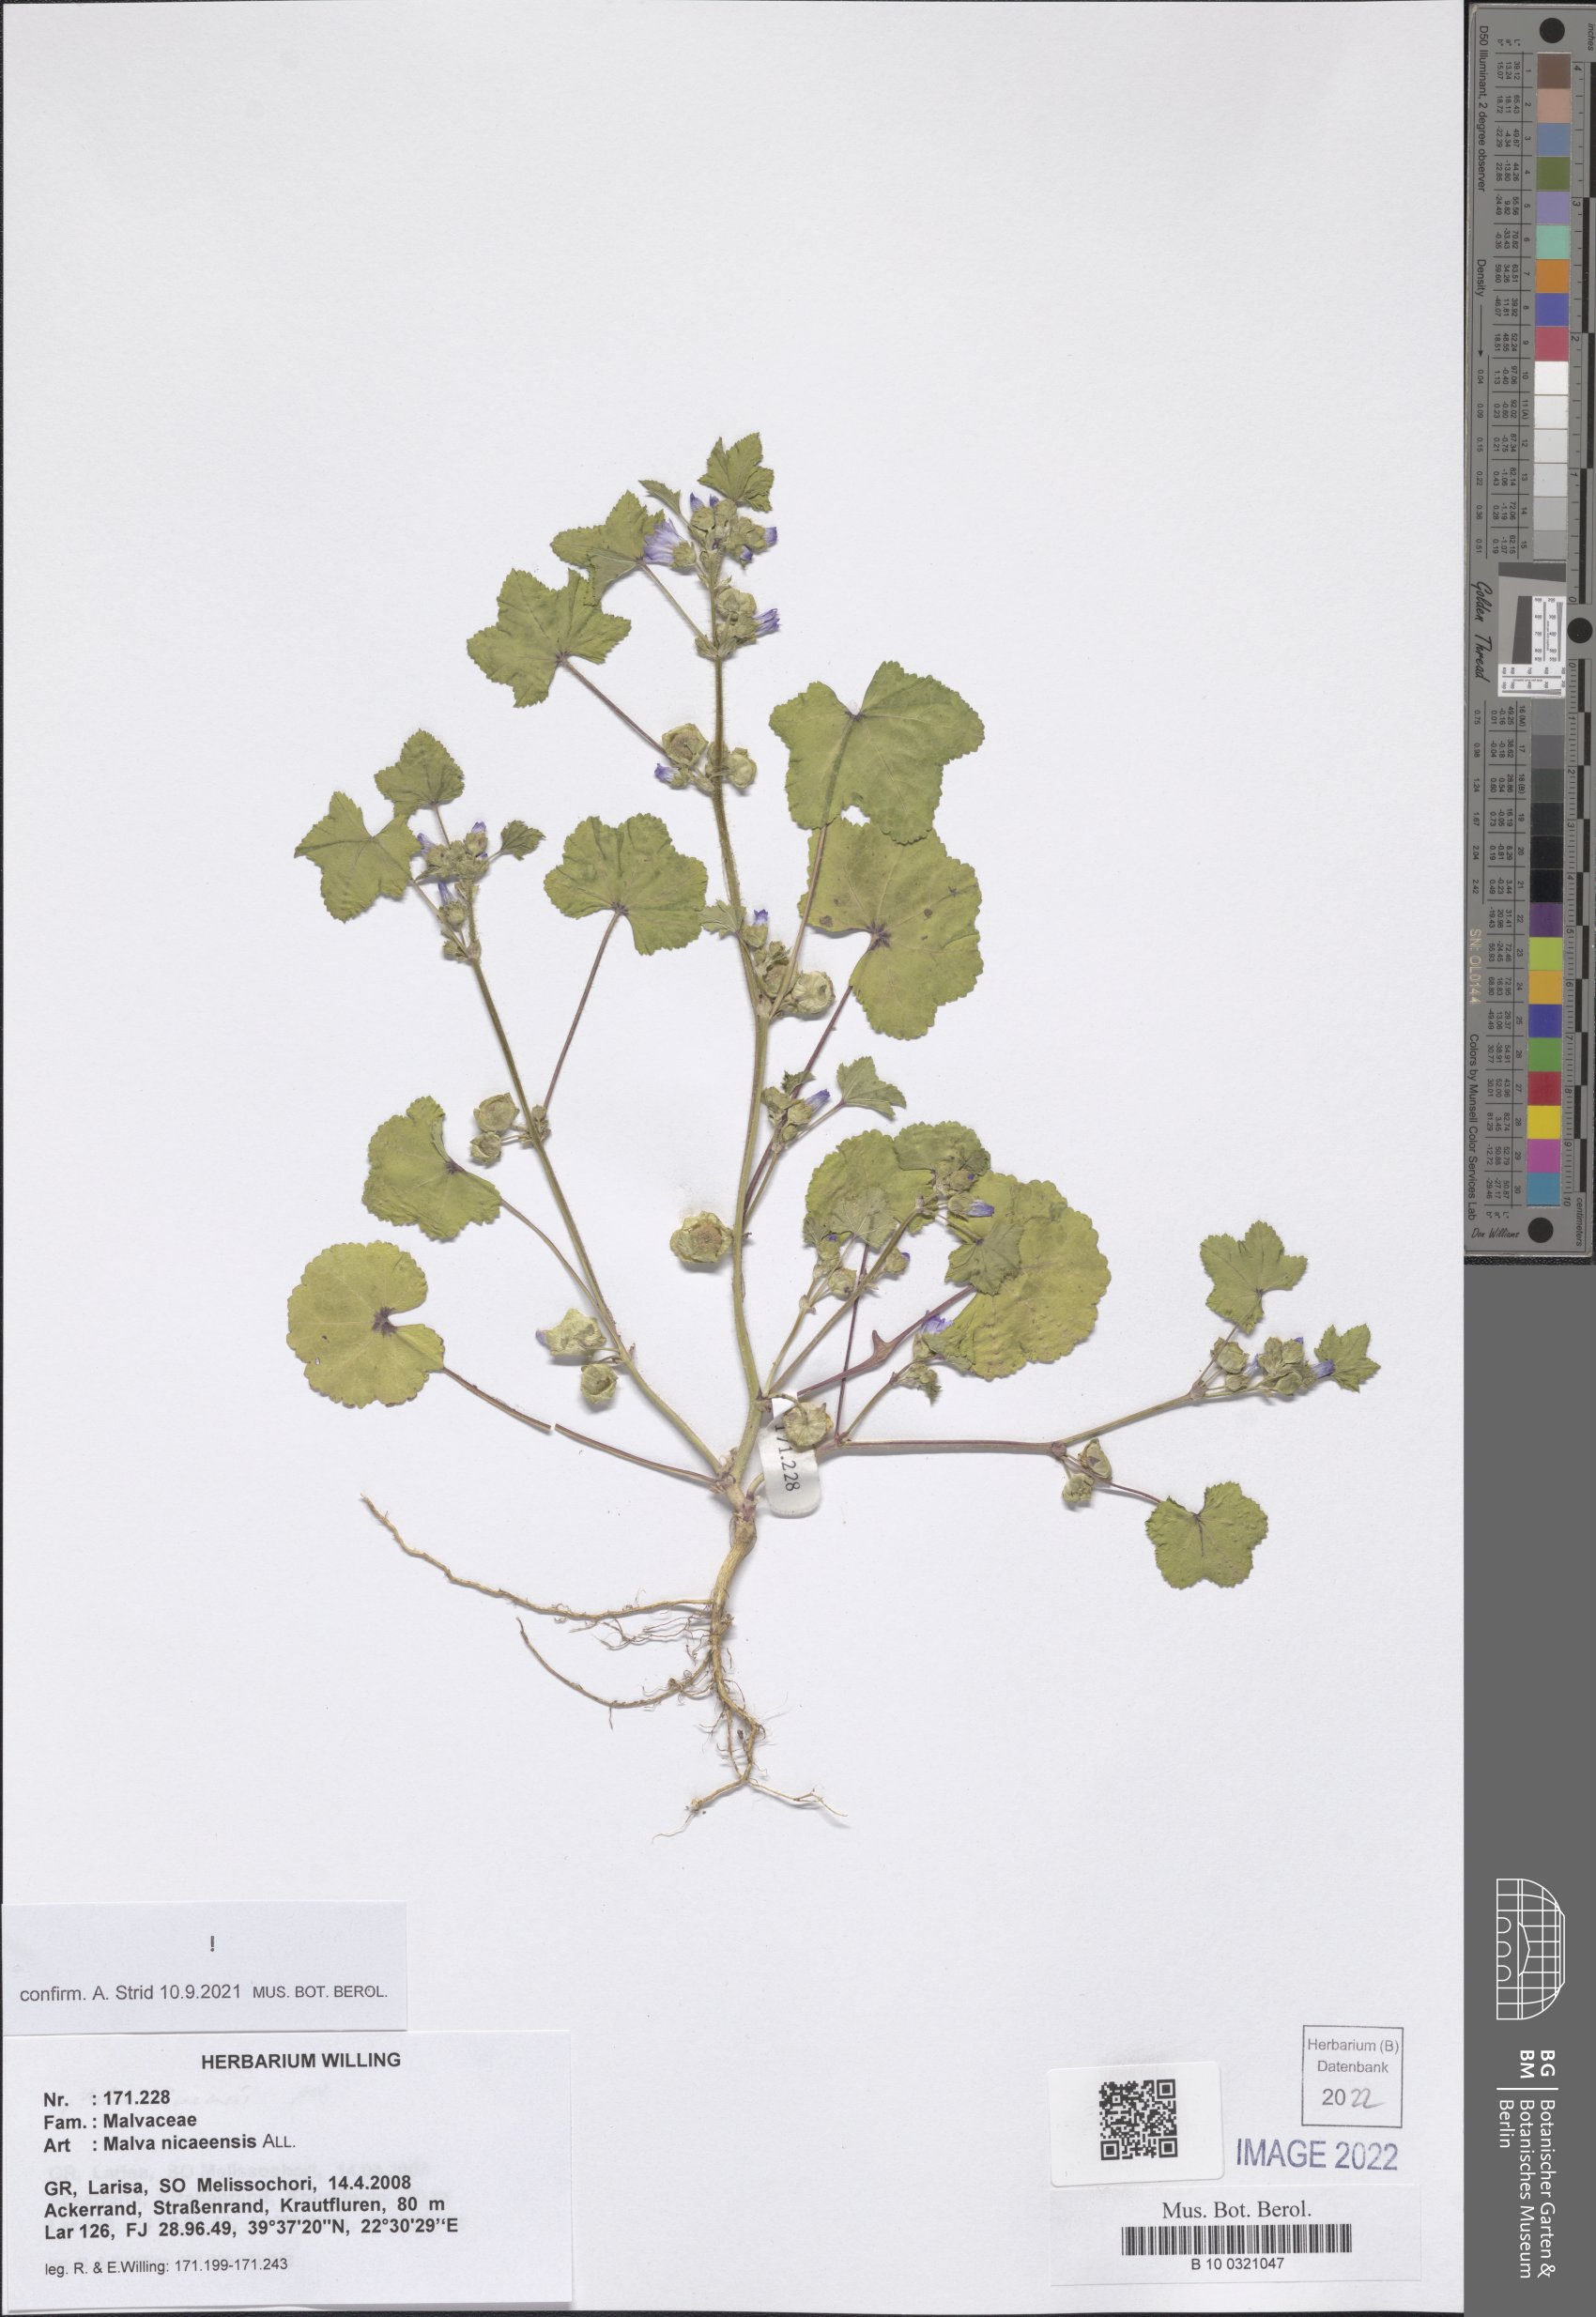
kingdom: Plantae
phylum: Tracheophyta
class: Magnoliopsida
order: Malvales
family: Malvaceae
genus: Malva
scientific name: Malva nicaeensis
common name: French mallow
